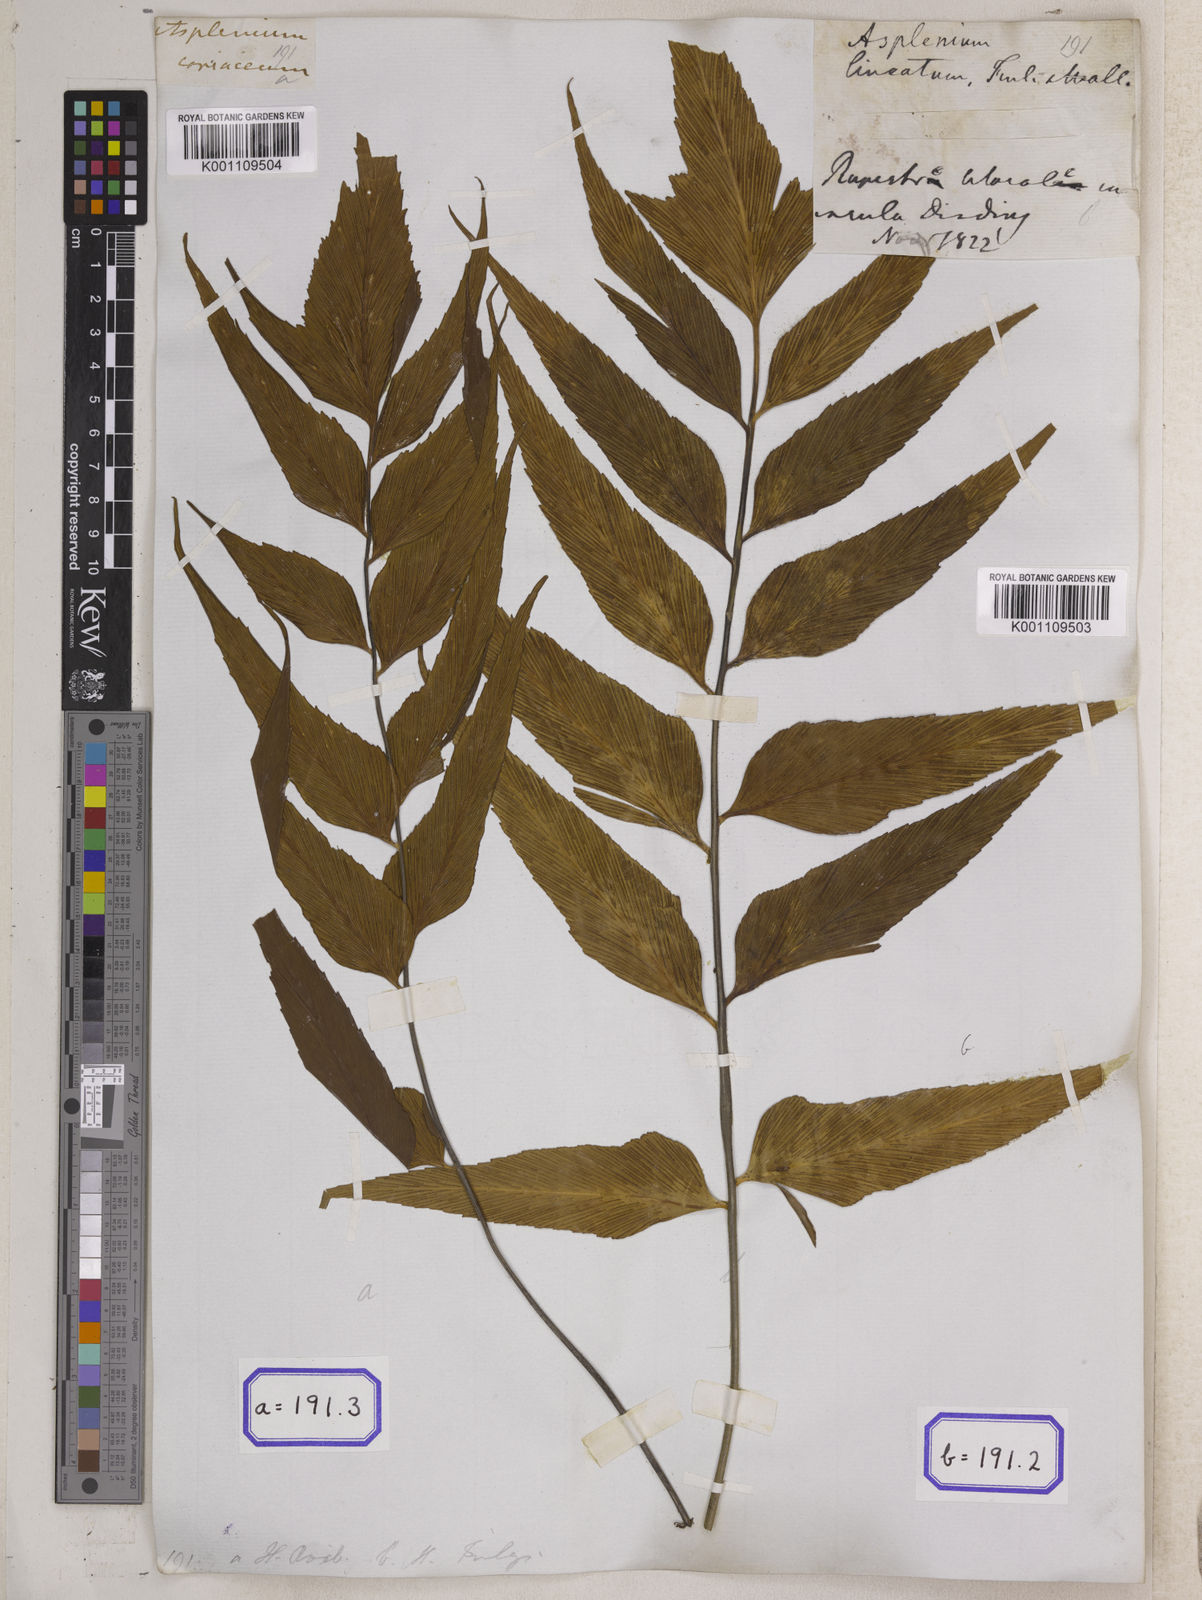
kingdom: Plantae
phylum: Tracheophyta
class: Polypodiopsida
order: Polypodiales
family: Aspleniaceae
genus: Asplenium
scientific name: Asplenium simile
